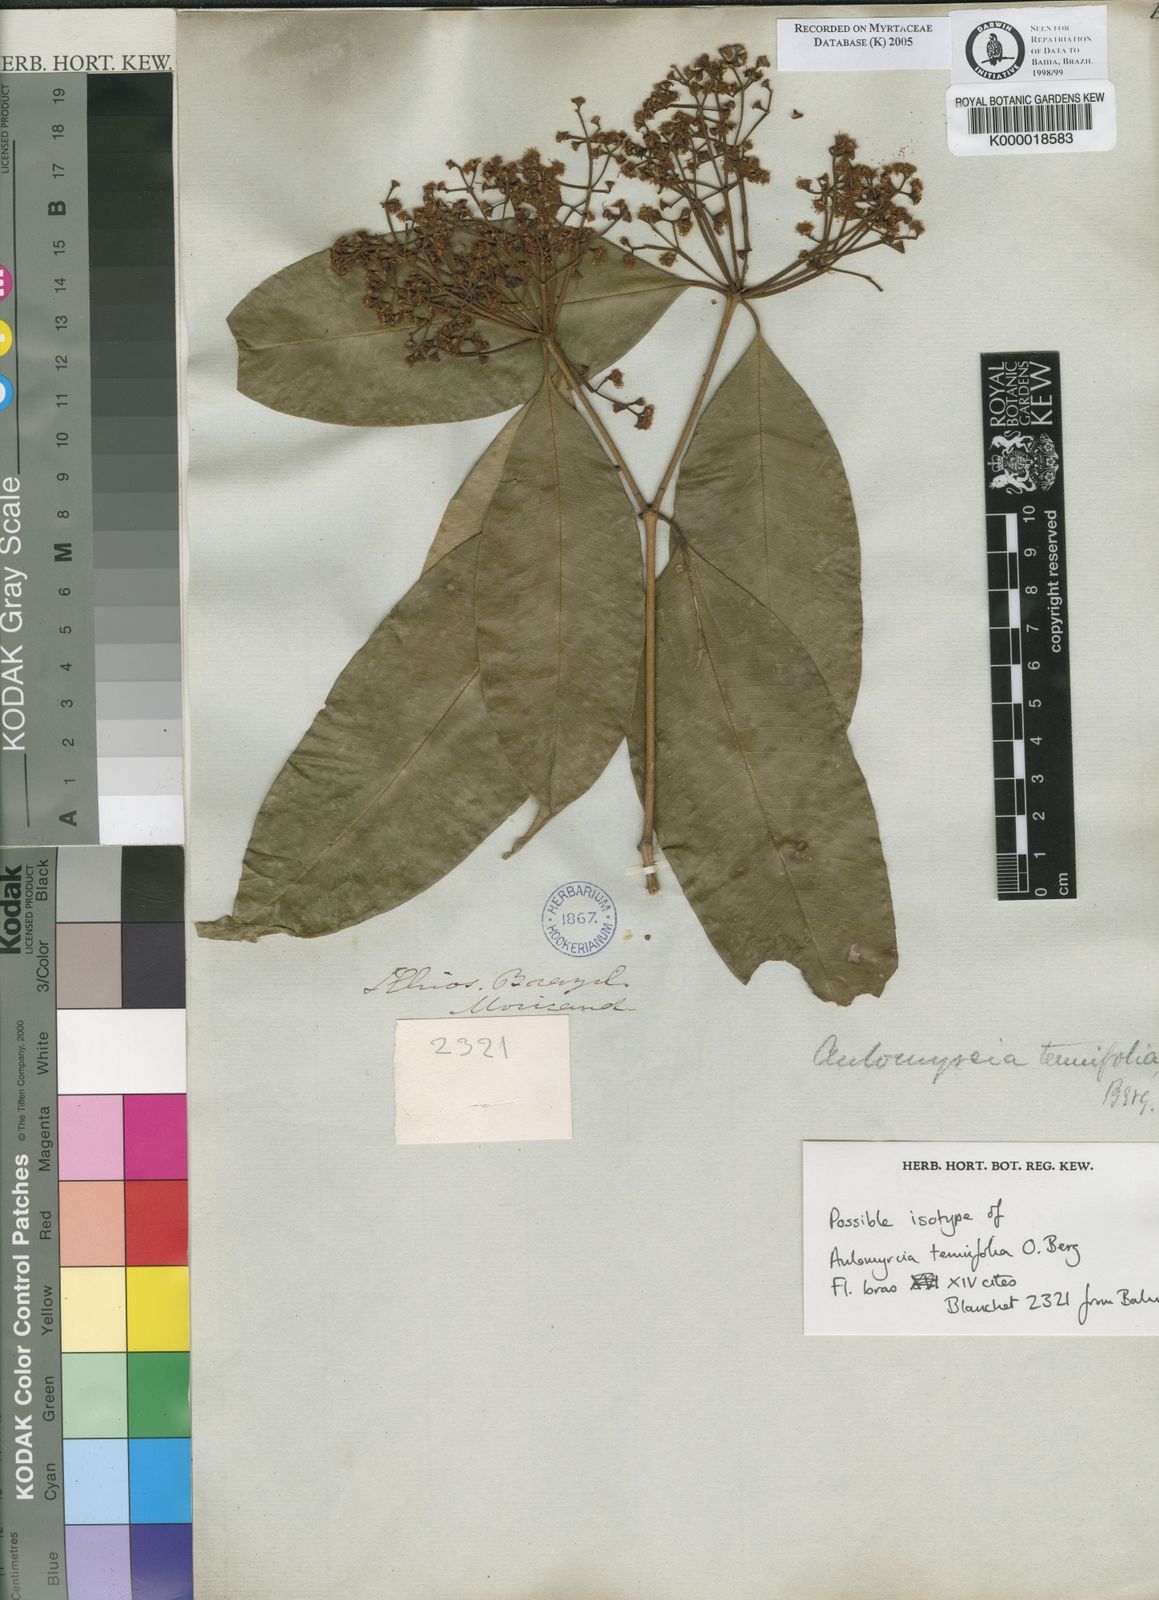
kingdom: Plantae
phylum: Tracheophyta
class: Magnoliopsida
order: Myrtales
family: Myrtaceae
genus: Myrcia
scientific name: Myrcia tenuifolia
